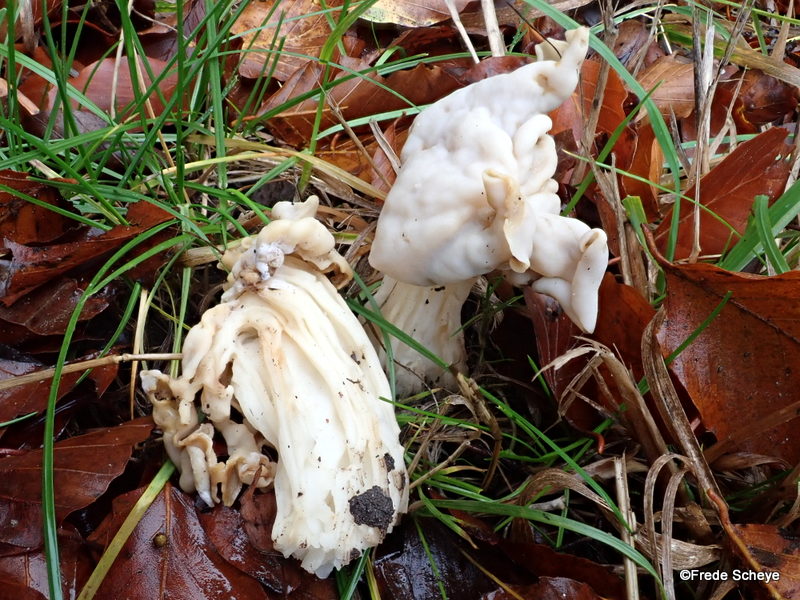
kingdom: Fungi
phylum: Ascomycota
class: Pezizomycetes
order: Pezizales
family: Helvellaceae
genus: Helvella
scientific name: Helvella crispa
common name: kruset foldhat
